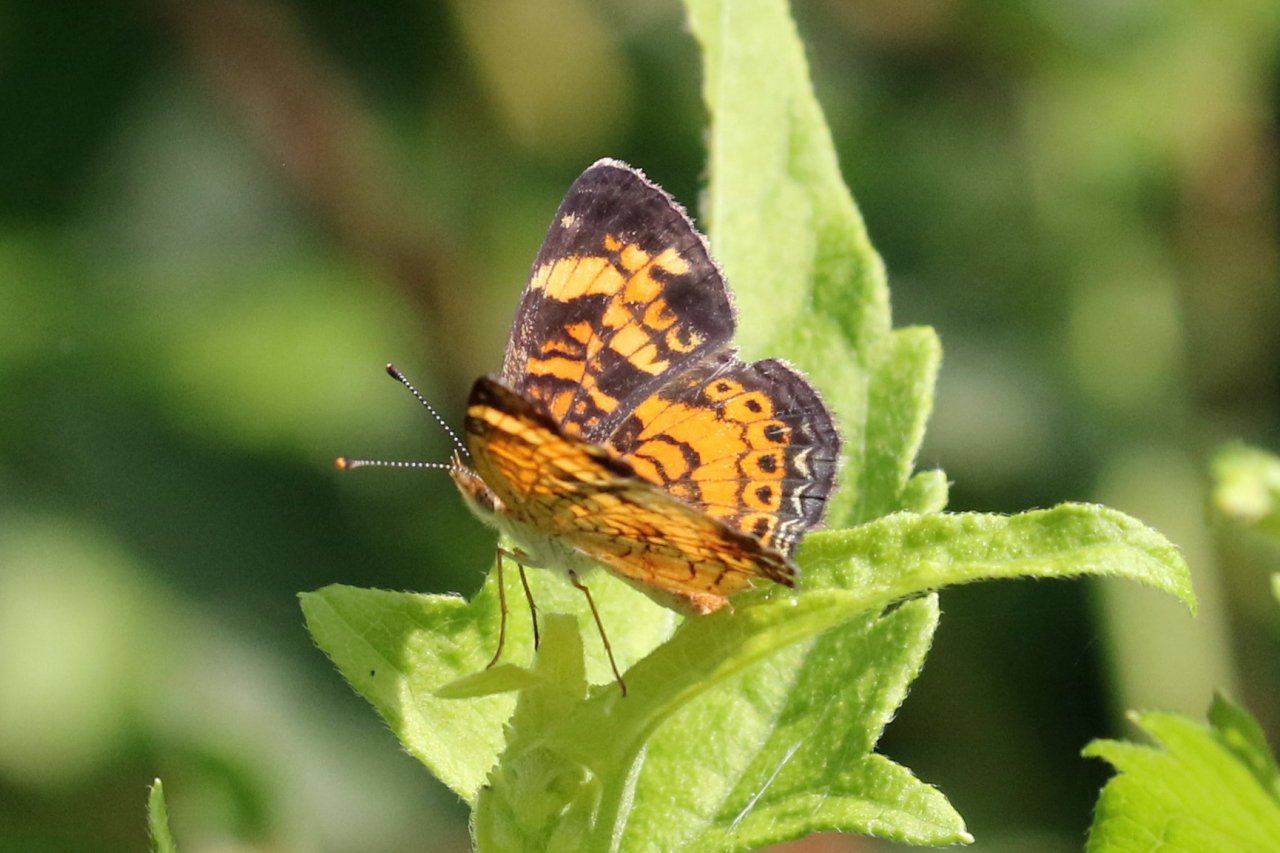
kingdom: Animalia
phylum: Arthropoda
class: Insecta
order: Lepidoptera
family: Nymphalidae
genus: Phyciodes
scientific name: Phyciodes tharos
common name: Pearl Crescent
